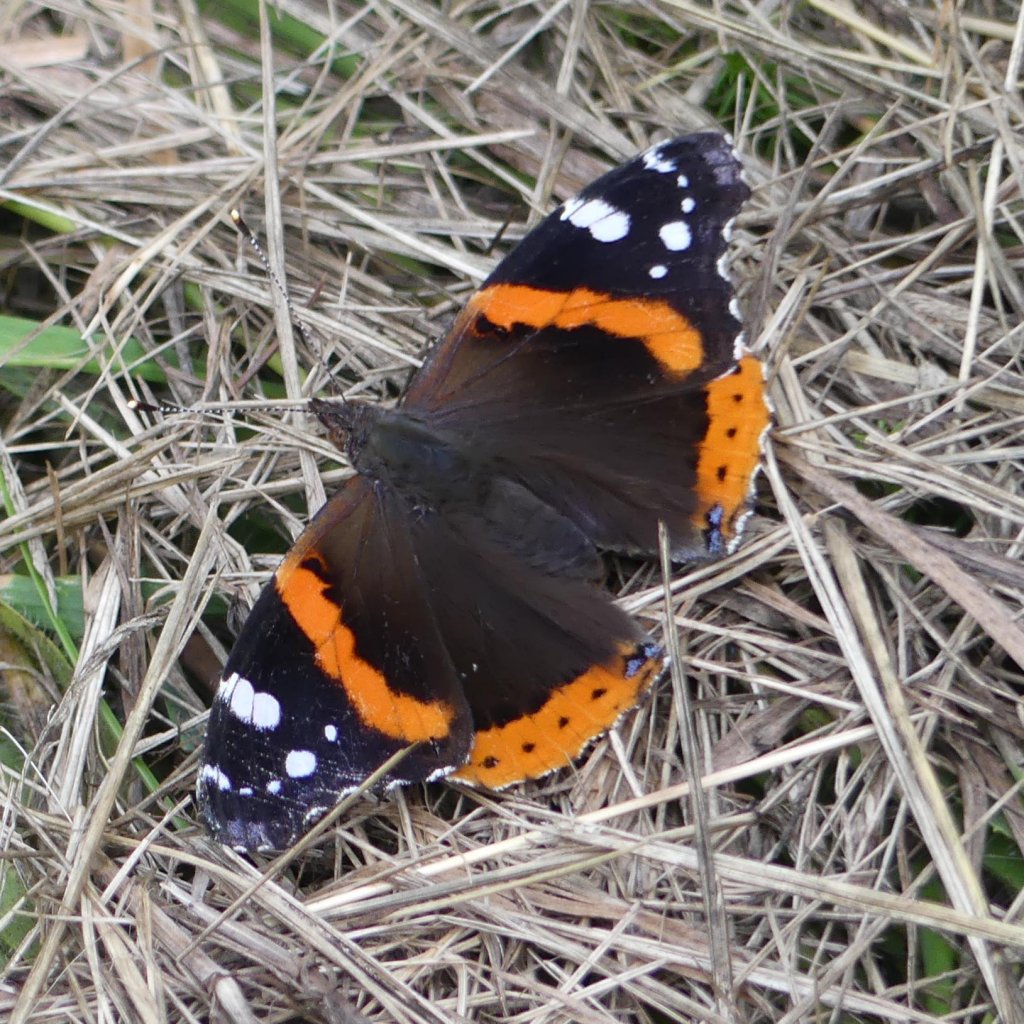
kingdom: Animalia
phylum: Arthropoda
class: Insecta
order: Lepidoptera
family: Nymphalidae
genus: Vanessa
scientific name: Vanessa atalanta
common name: Red Admiral
